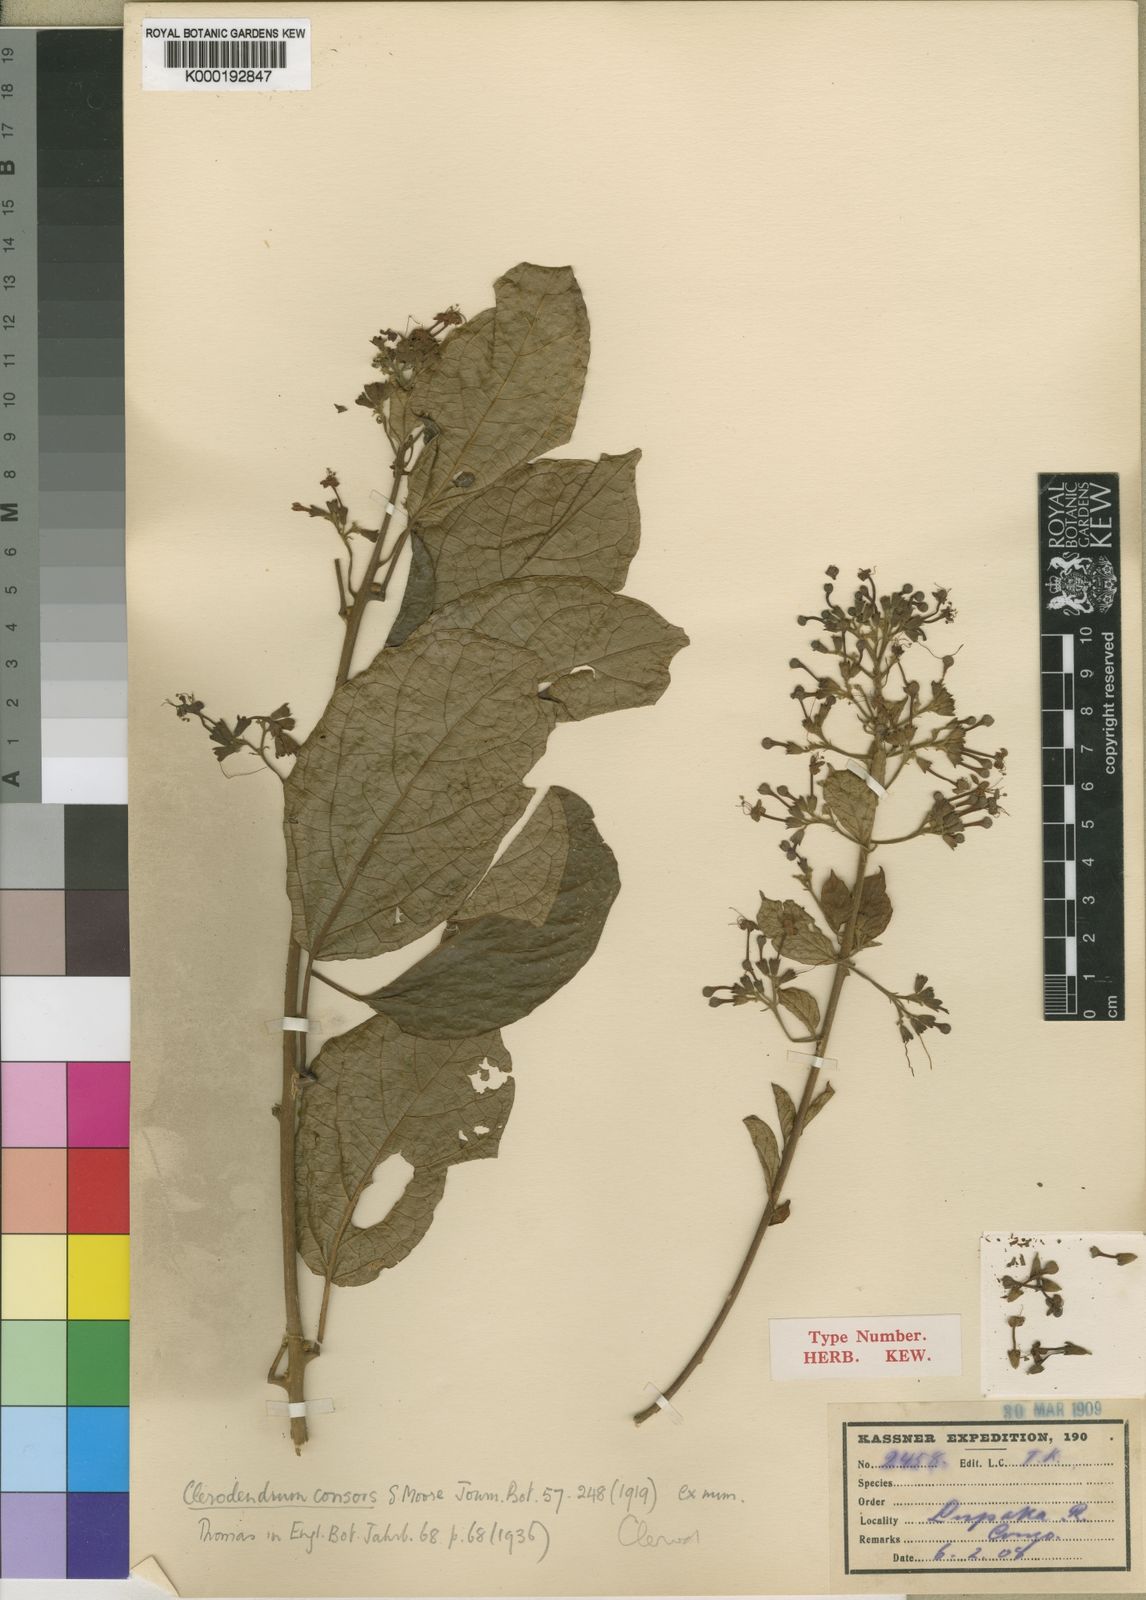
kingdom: Plantae
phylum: Tracheophyta
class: Magnoliopsida
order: Lamiales
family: Lamiaceae
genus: Clerodendrum
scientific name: Clerodendrum tanganyikense
